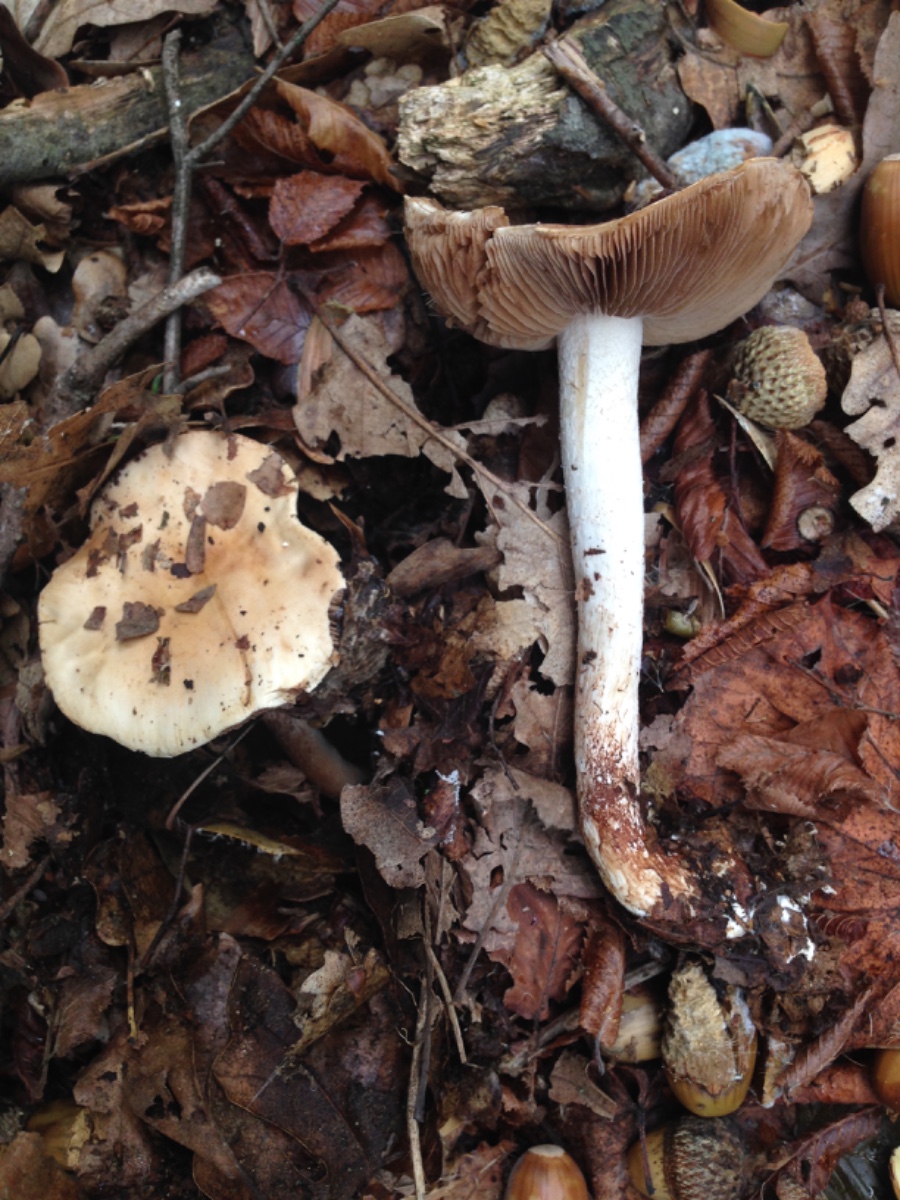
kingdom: Fungi
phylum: Basidiomycota
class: Agaricomycetes
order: Agaricales
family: Hymenogastraceae
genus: Hebeloma
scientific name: Hebeloma sinapizans
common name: ræddike-tåreblad
